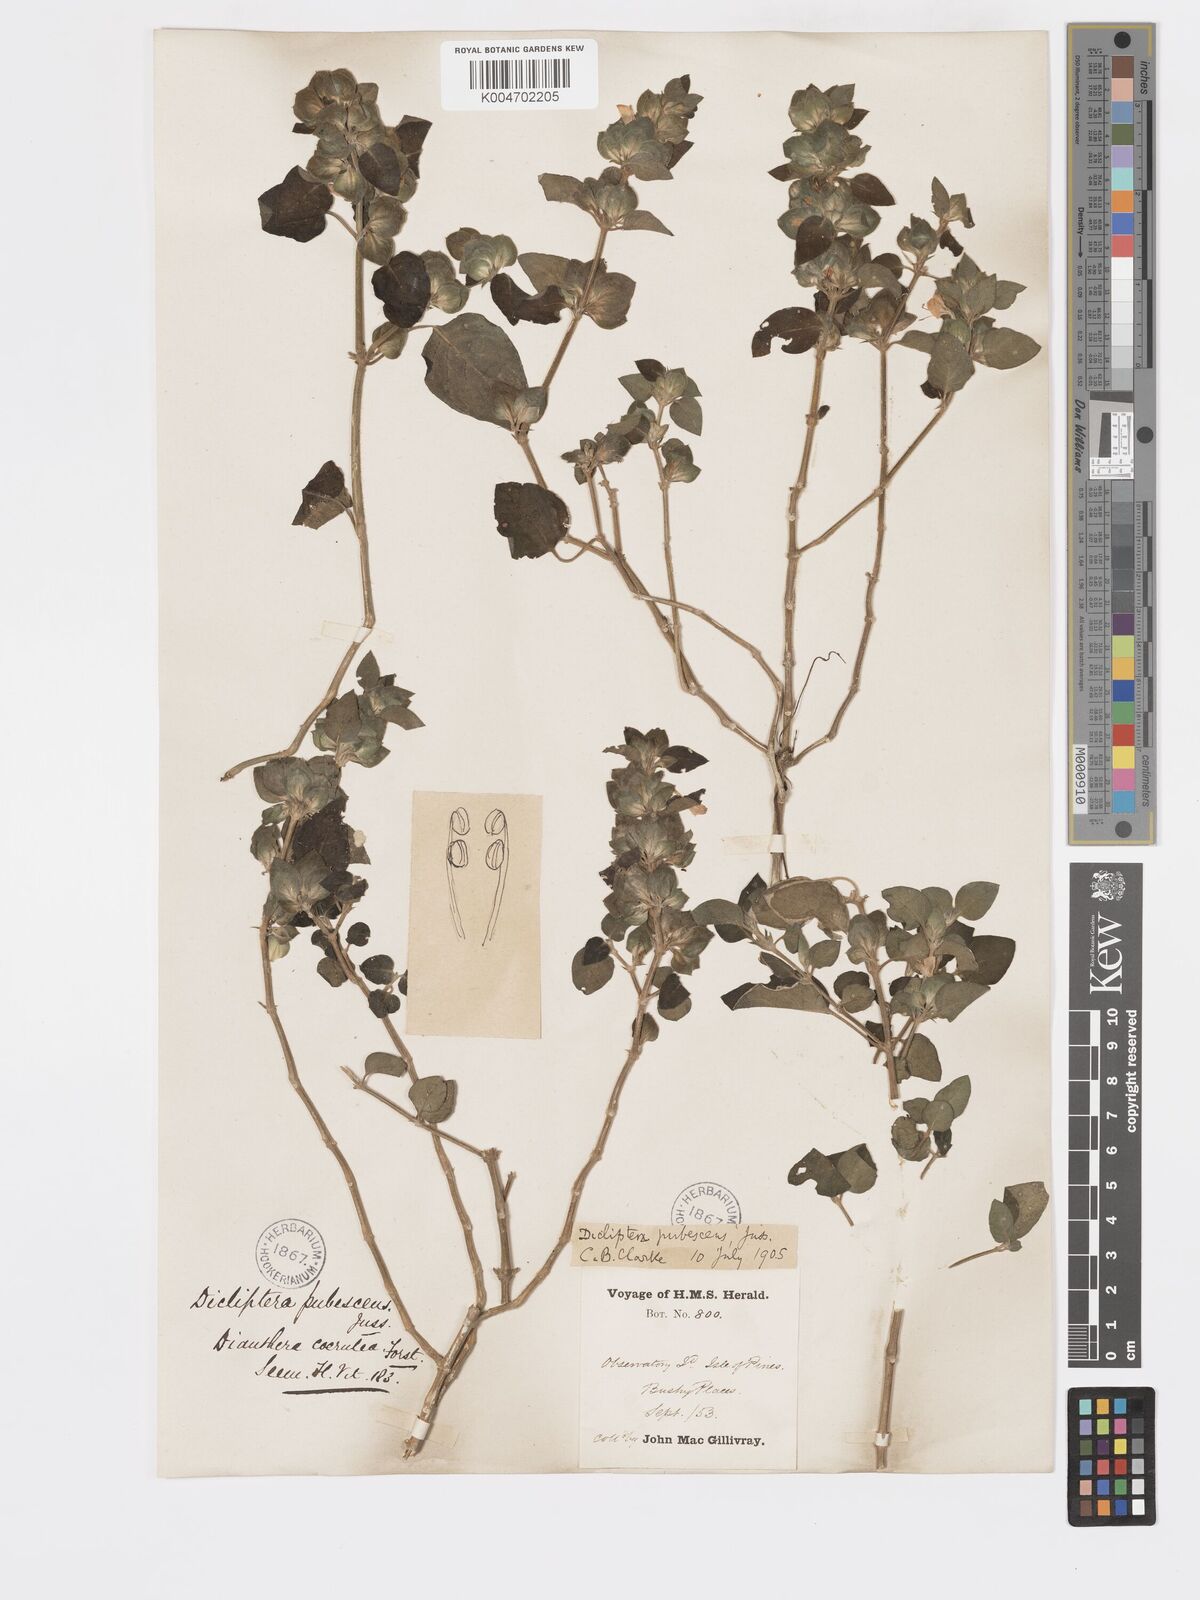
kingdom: Plantae
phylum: Tracheophyta
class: Magnoliopsida
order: Lamiales
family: Acanthaceae
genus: Rungia
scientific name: Rungia parviflora
